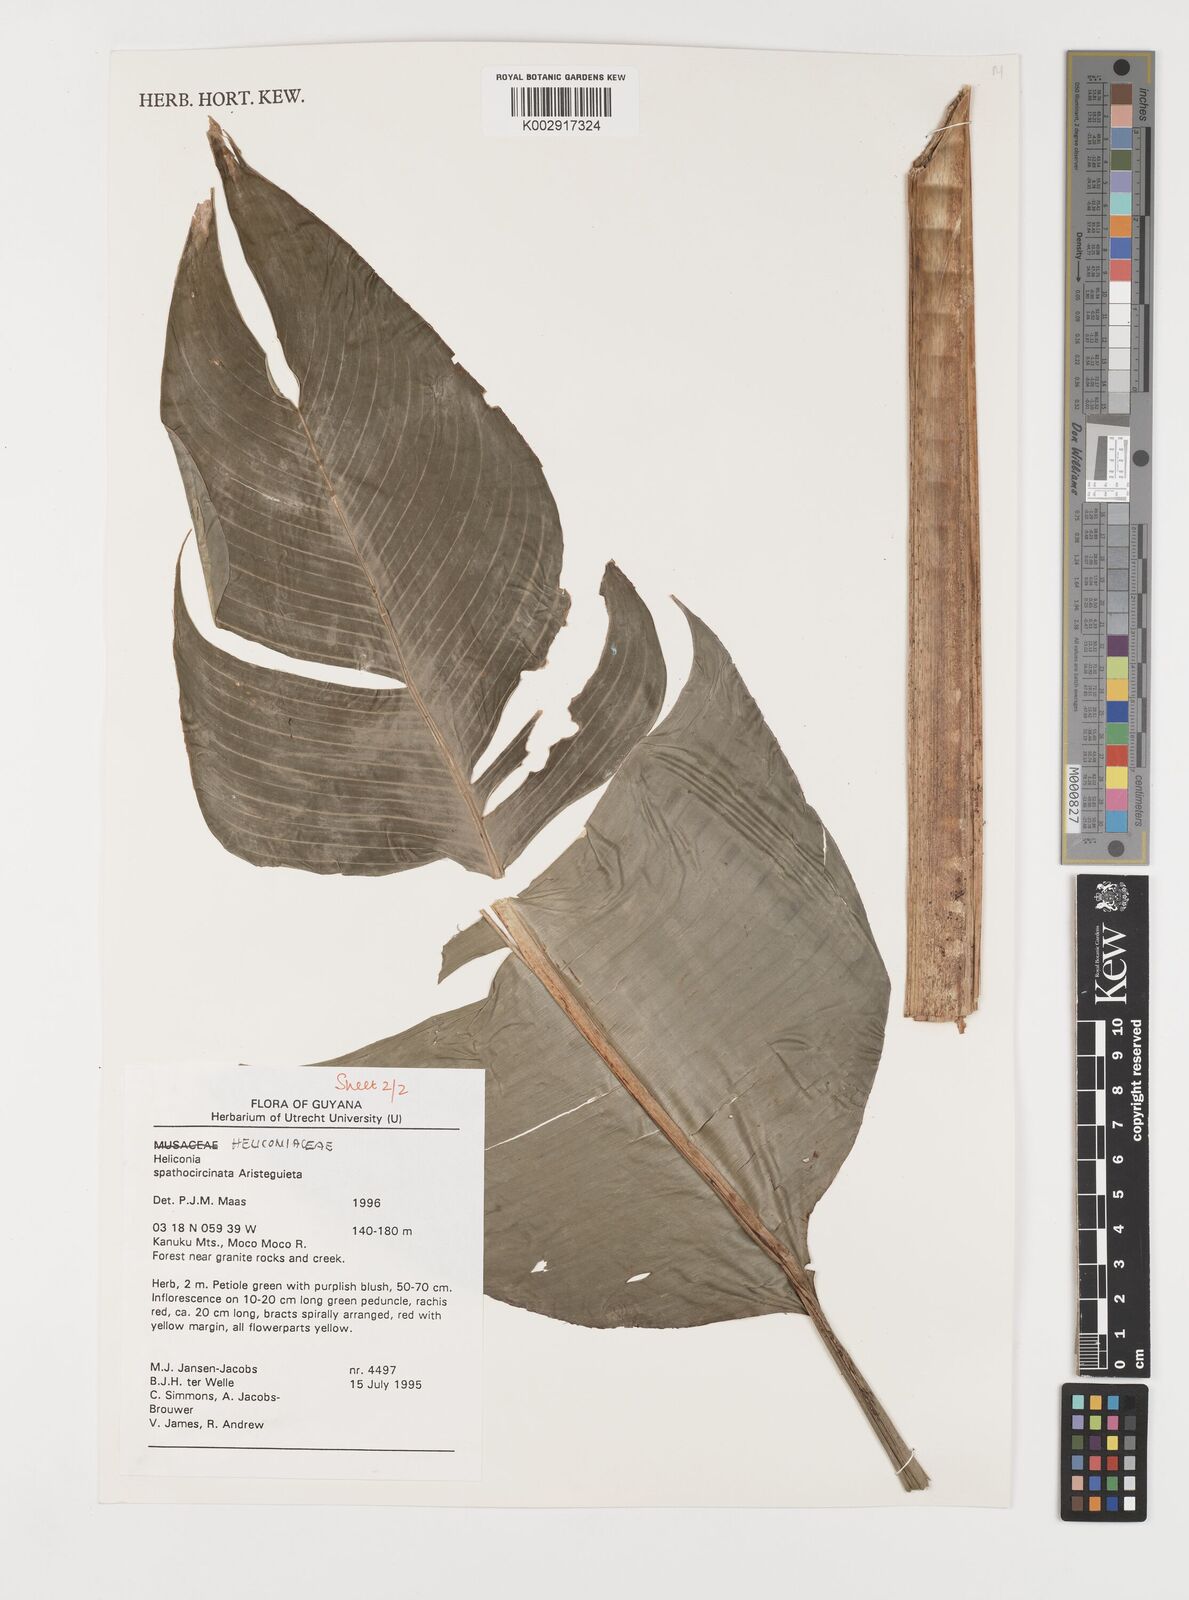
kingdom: Plantae
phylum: Tracheophyta
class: Liliopsida
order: Zingiberales
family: Heliconiaceae
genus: Heliconia
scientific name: Heliconia spathocircinata
